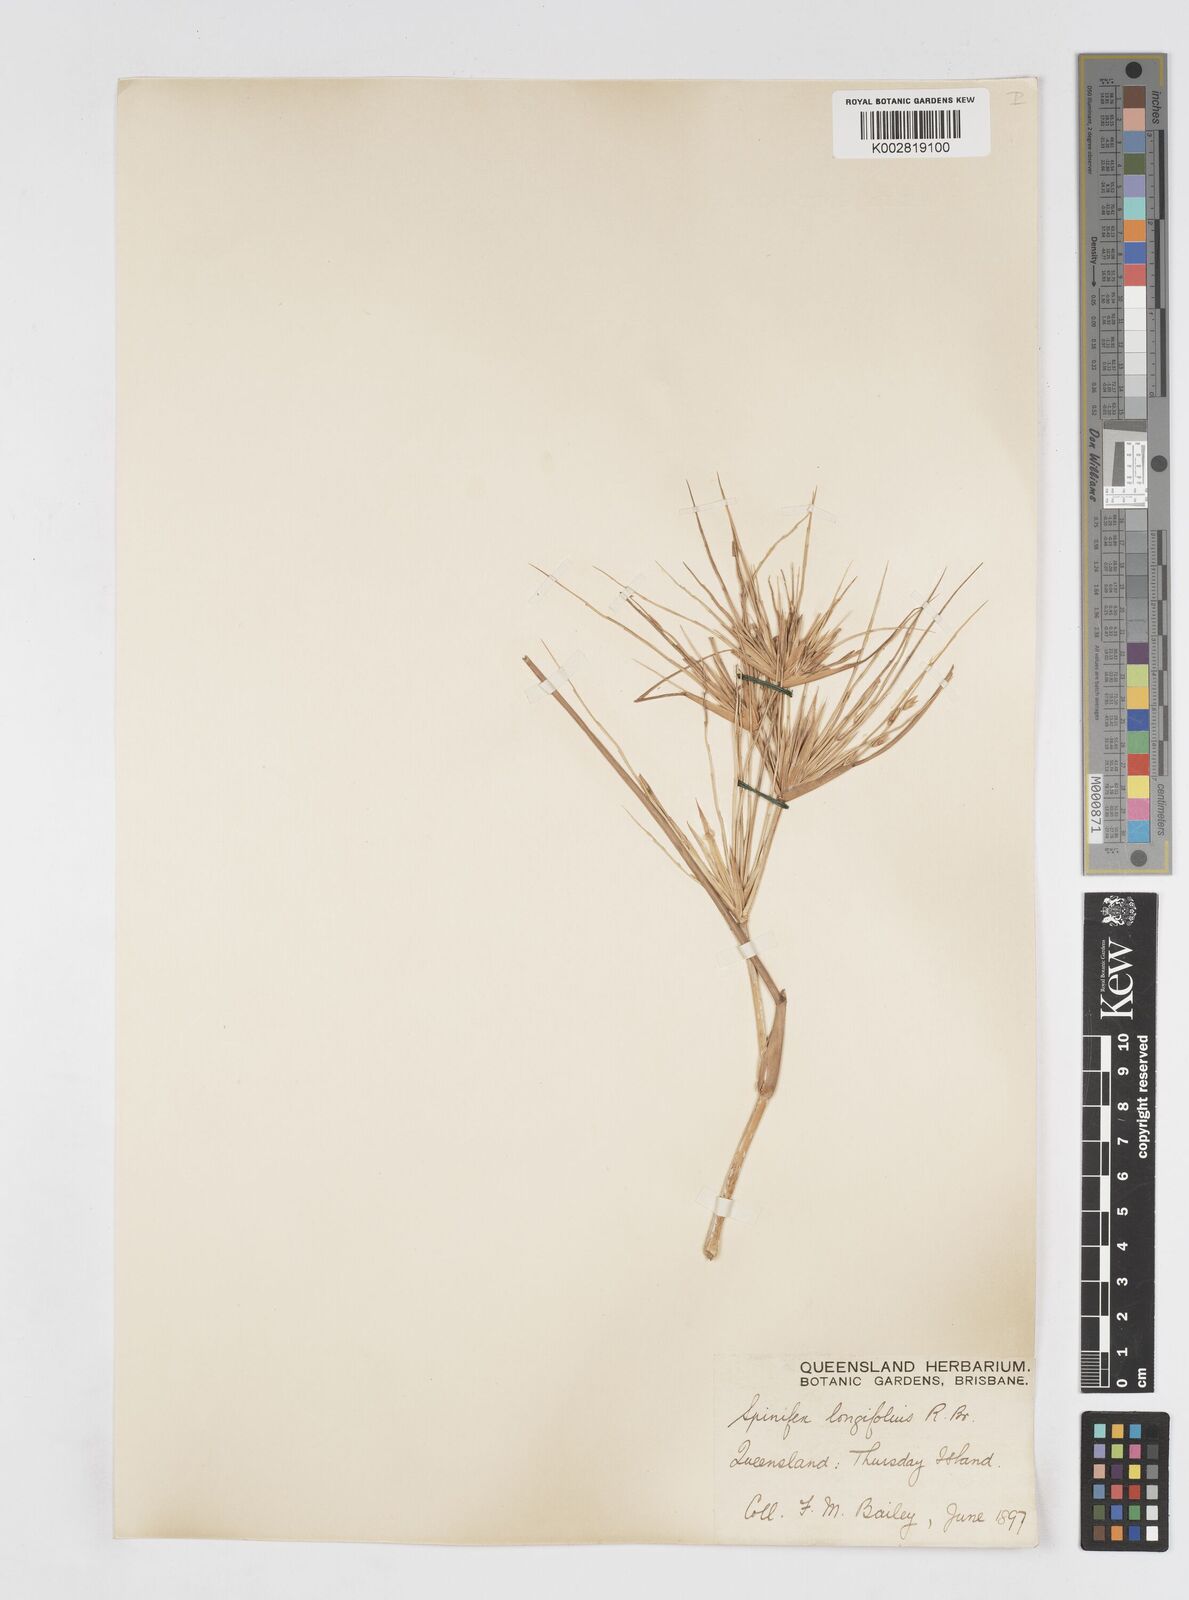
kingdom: Plantae
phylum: Tracheophyta
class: Liliopsida
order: Poales
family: Poaceae
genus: Spinifex
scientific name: Spinifex longifolius
